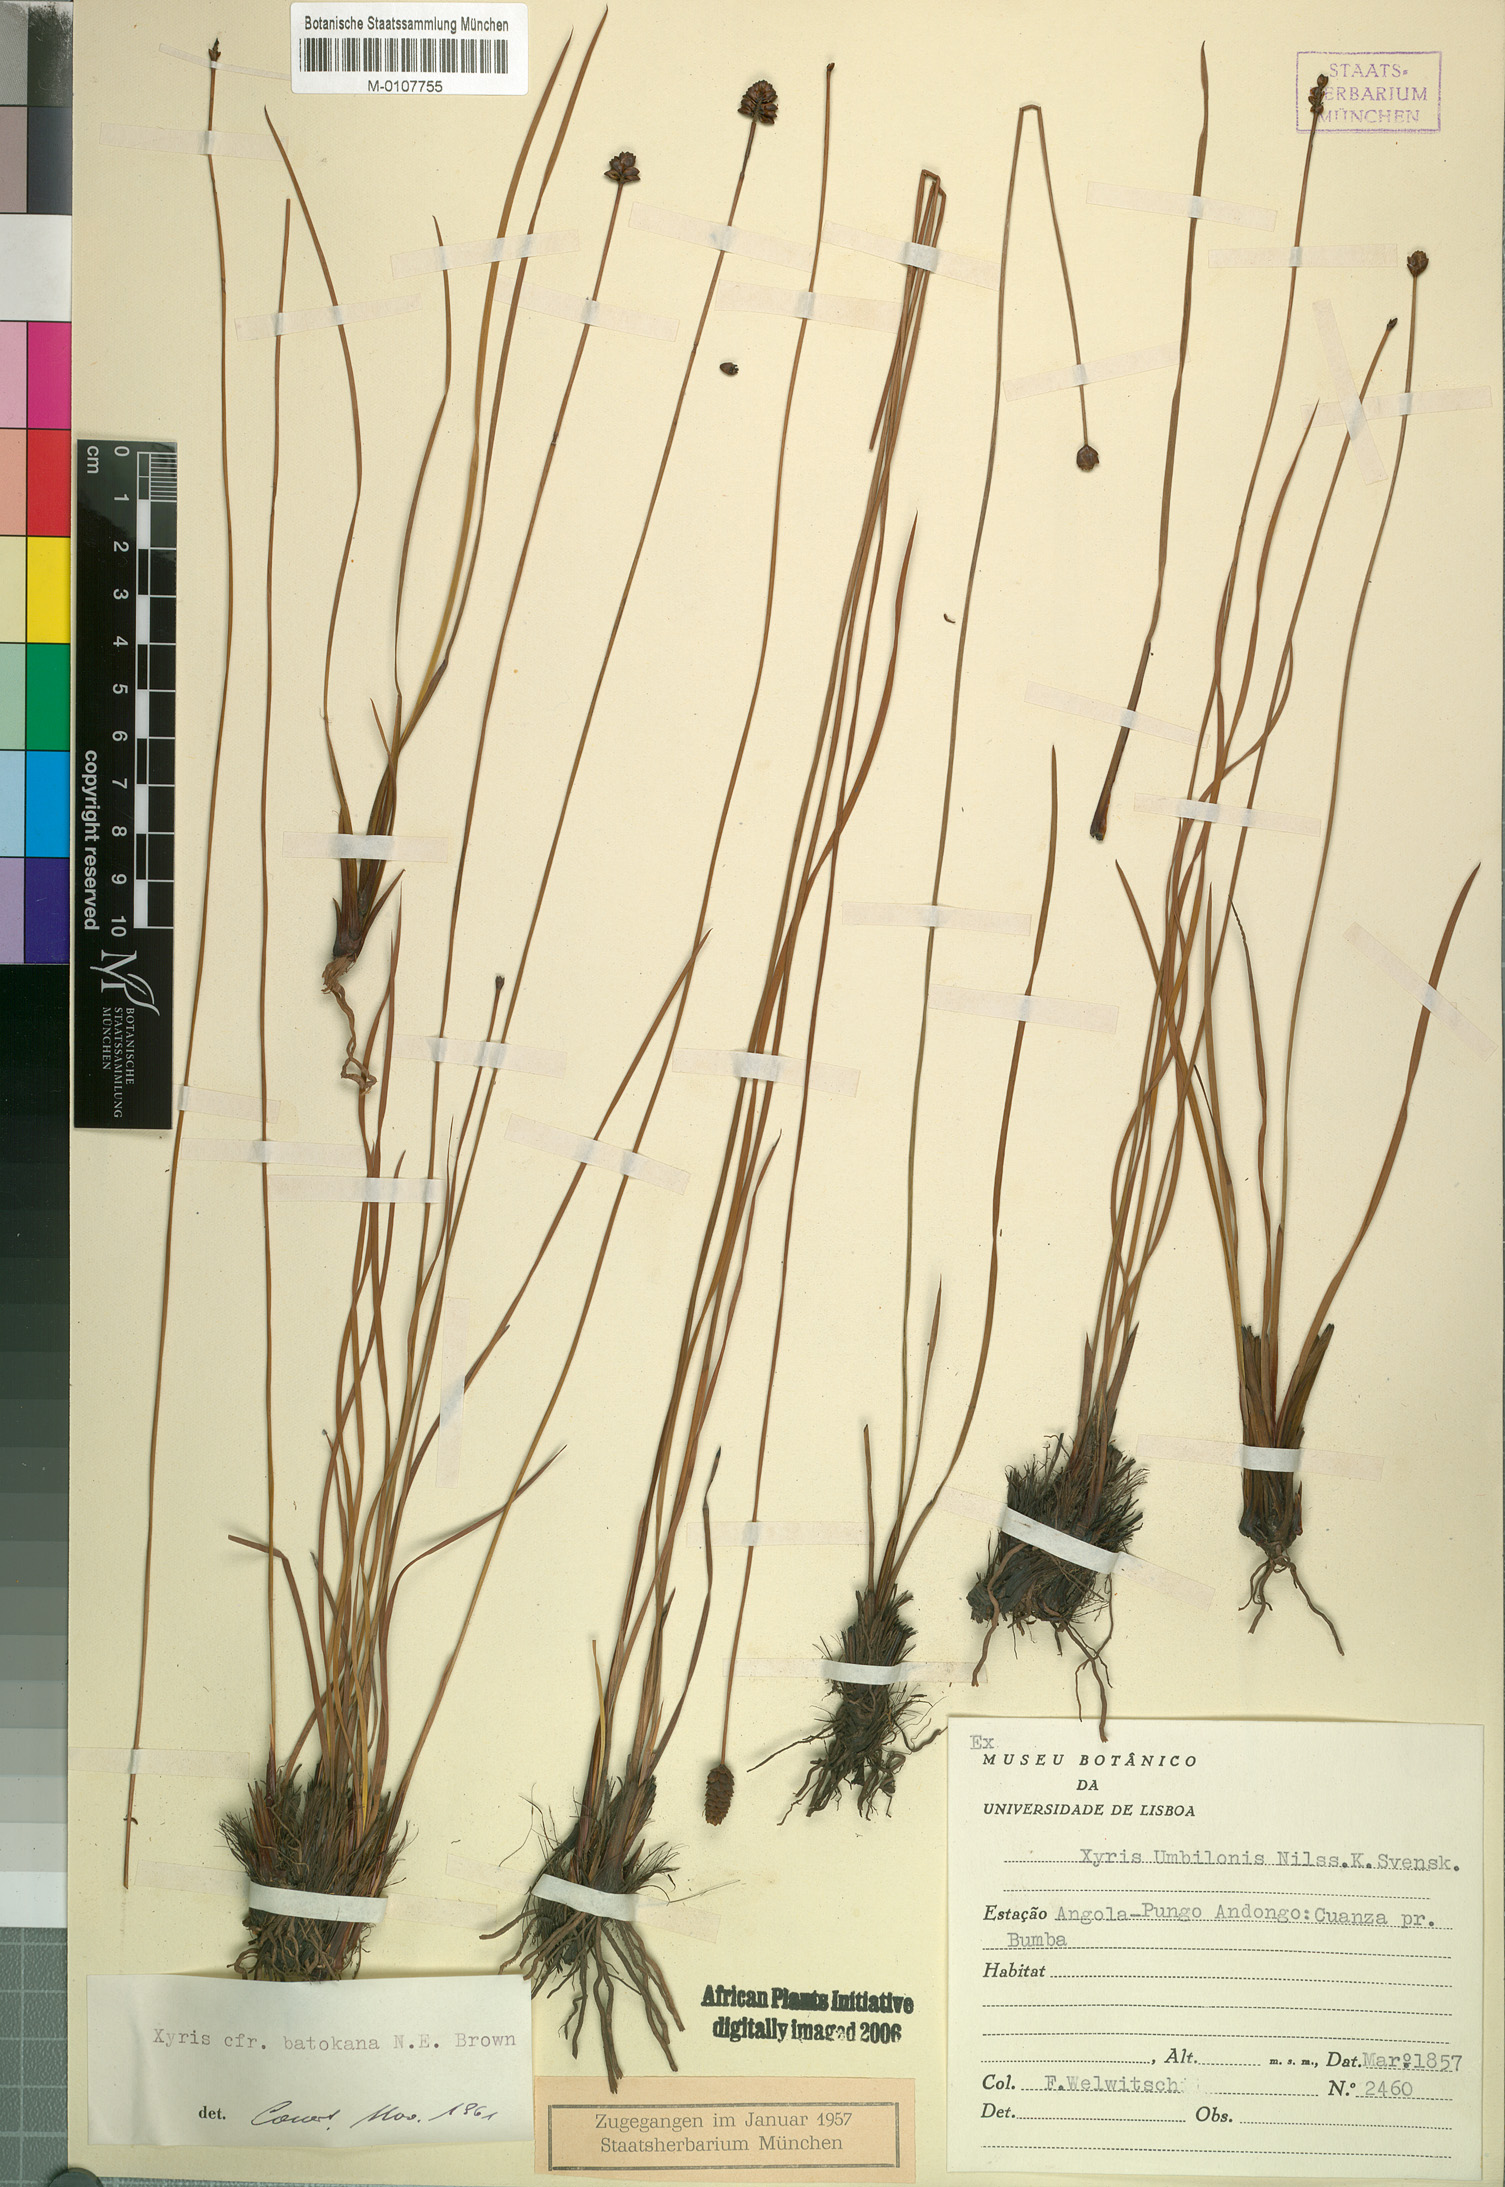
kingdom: Plantae
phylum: Tracheophyta
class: Liliopsida
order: Poales
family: Xyridaceae
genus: Xyris
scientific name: Xyris congensis
